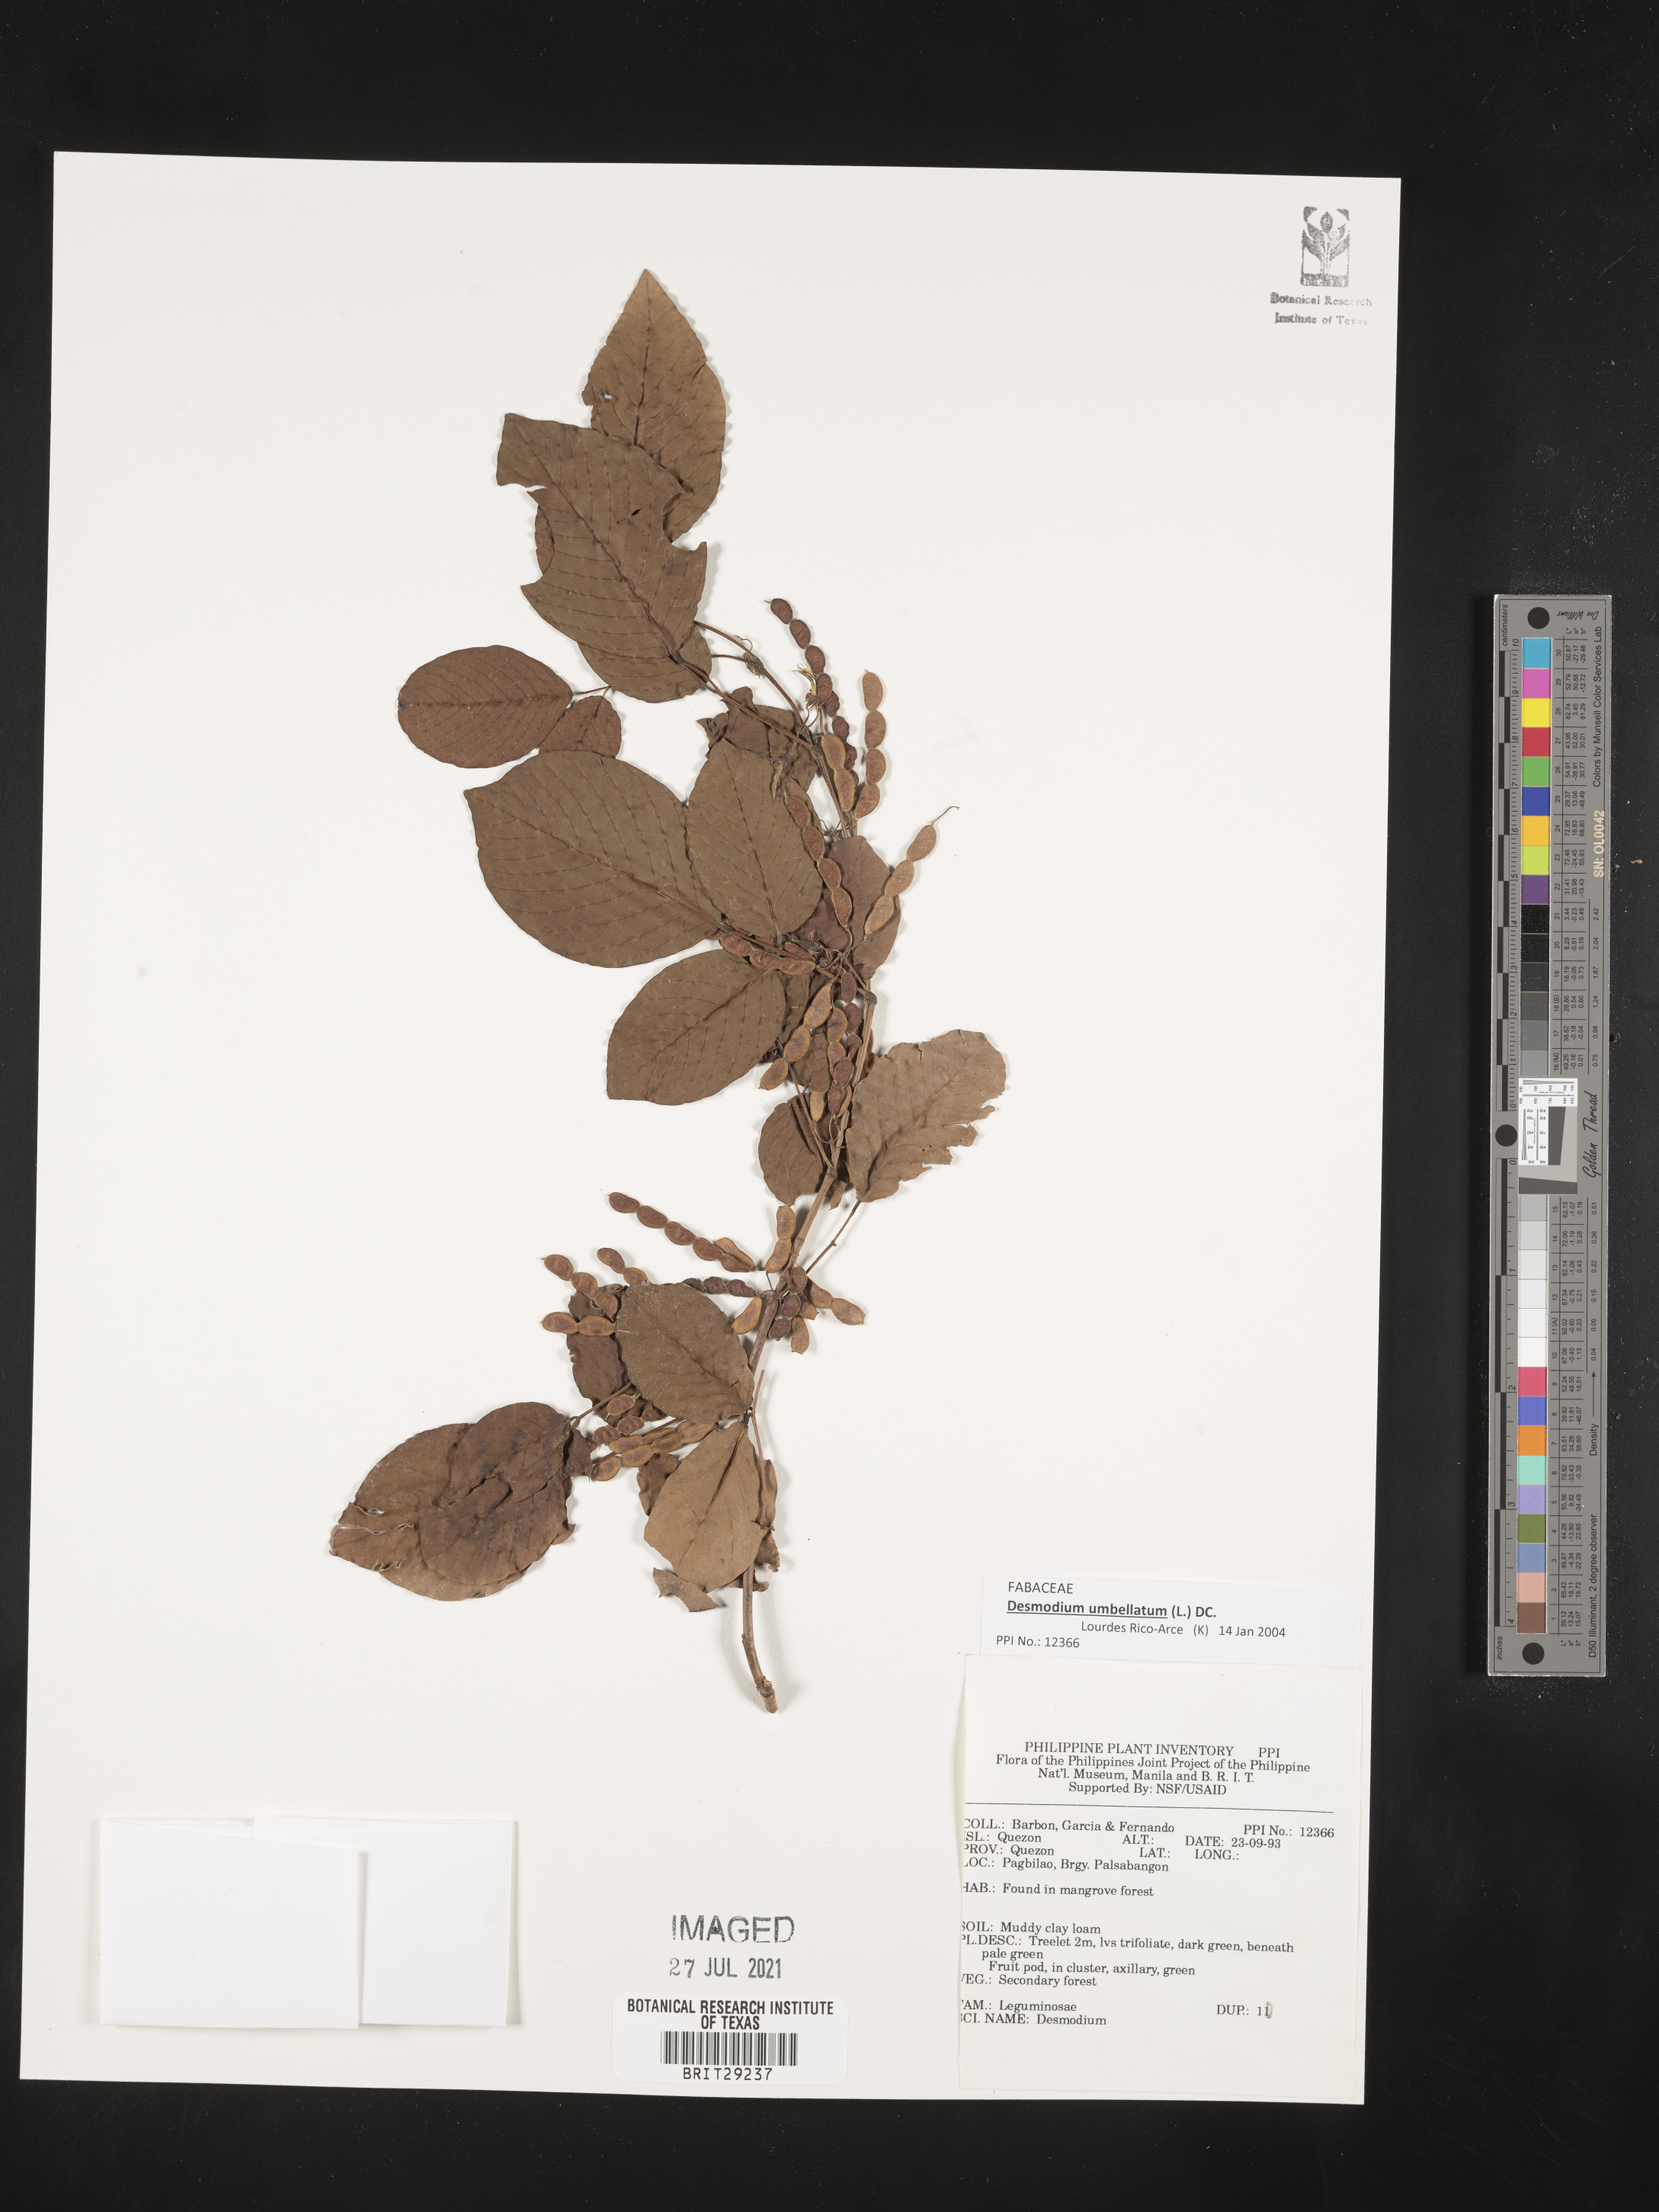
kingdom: Plantae
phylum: Tracheophyta
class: Magnoliopsida
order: Fabales
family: Fabaceae
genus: Dendrolobium
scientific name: Dendrolobium umbellatum
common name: Horsebush
